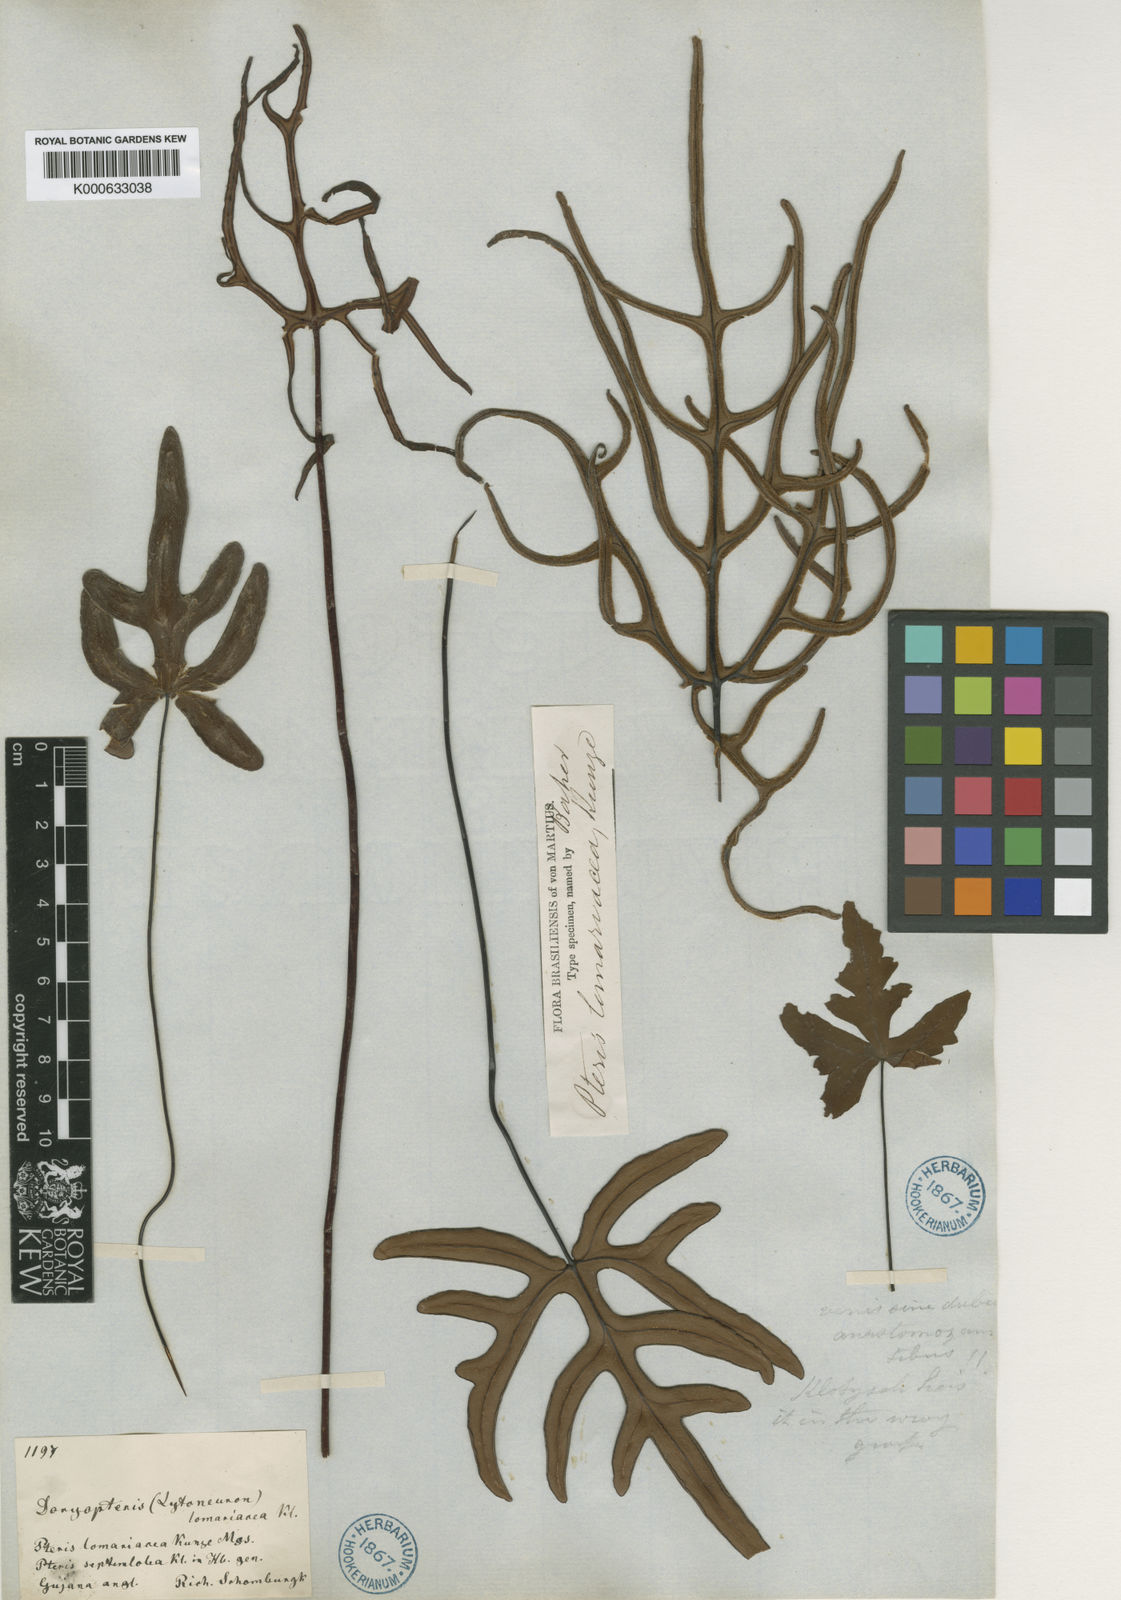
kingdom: Plantae
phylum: Tracheophyta
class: Polypodiopsida
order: Polypodiales
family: Pteridaceae
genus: Doryopteris
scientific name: Doryopteris
